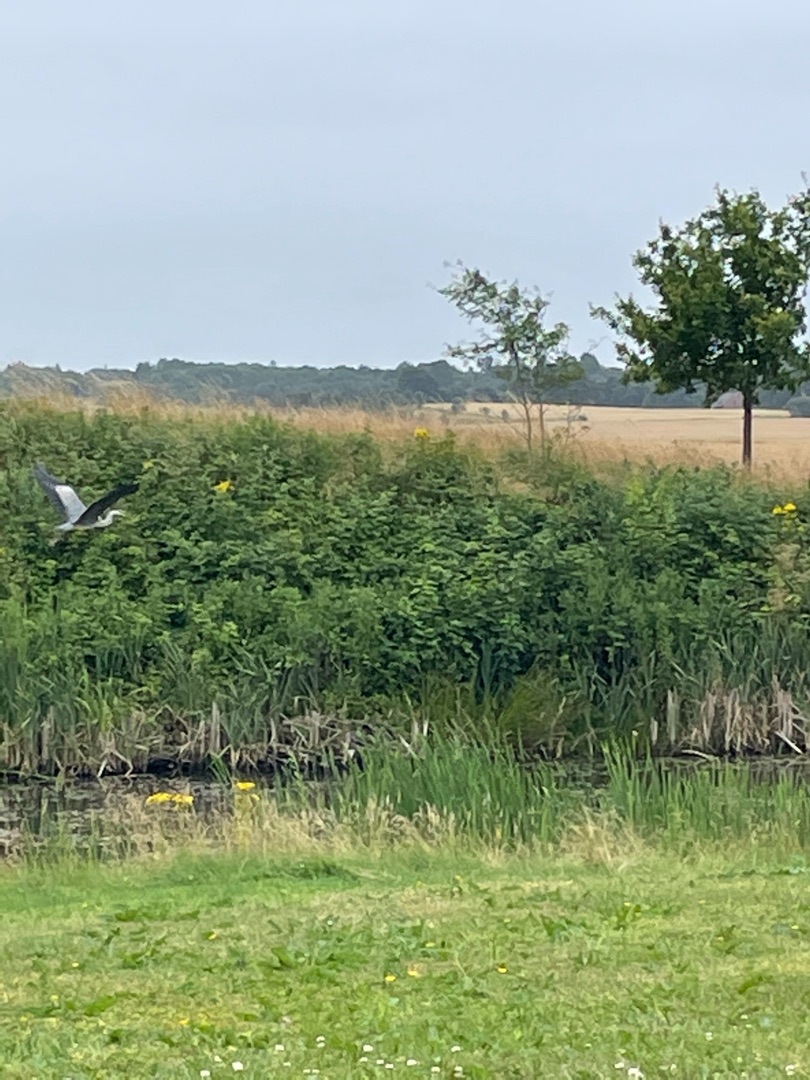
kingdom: Animalia
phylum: Chordata
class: Aves
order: Pelecaniformes
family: Ardeidae
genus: Ardea
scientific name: Ardea cinerea
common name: Fiskehejre
